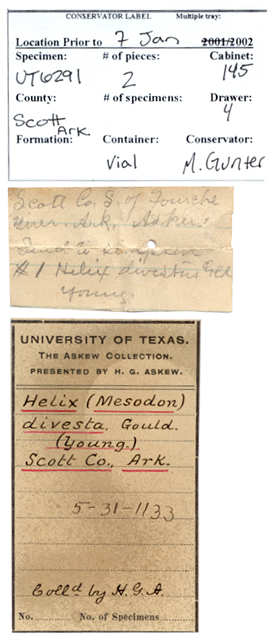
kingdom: Animalia
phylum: Mollusca
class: Gastropoda
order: Stylommatophora
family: Polygyridae
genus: Neohelix
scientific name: Neohelix divesta
